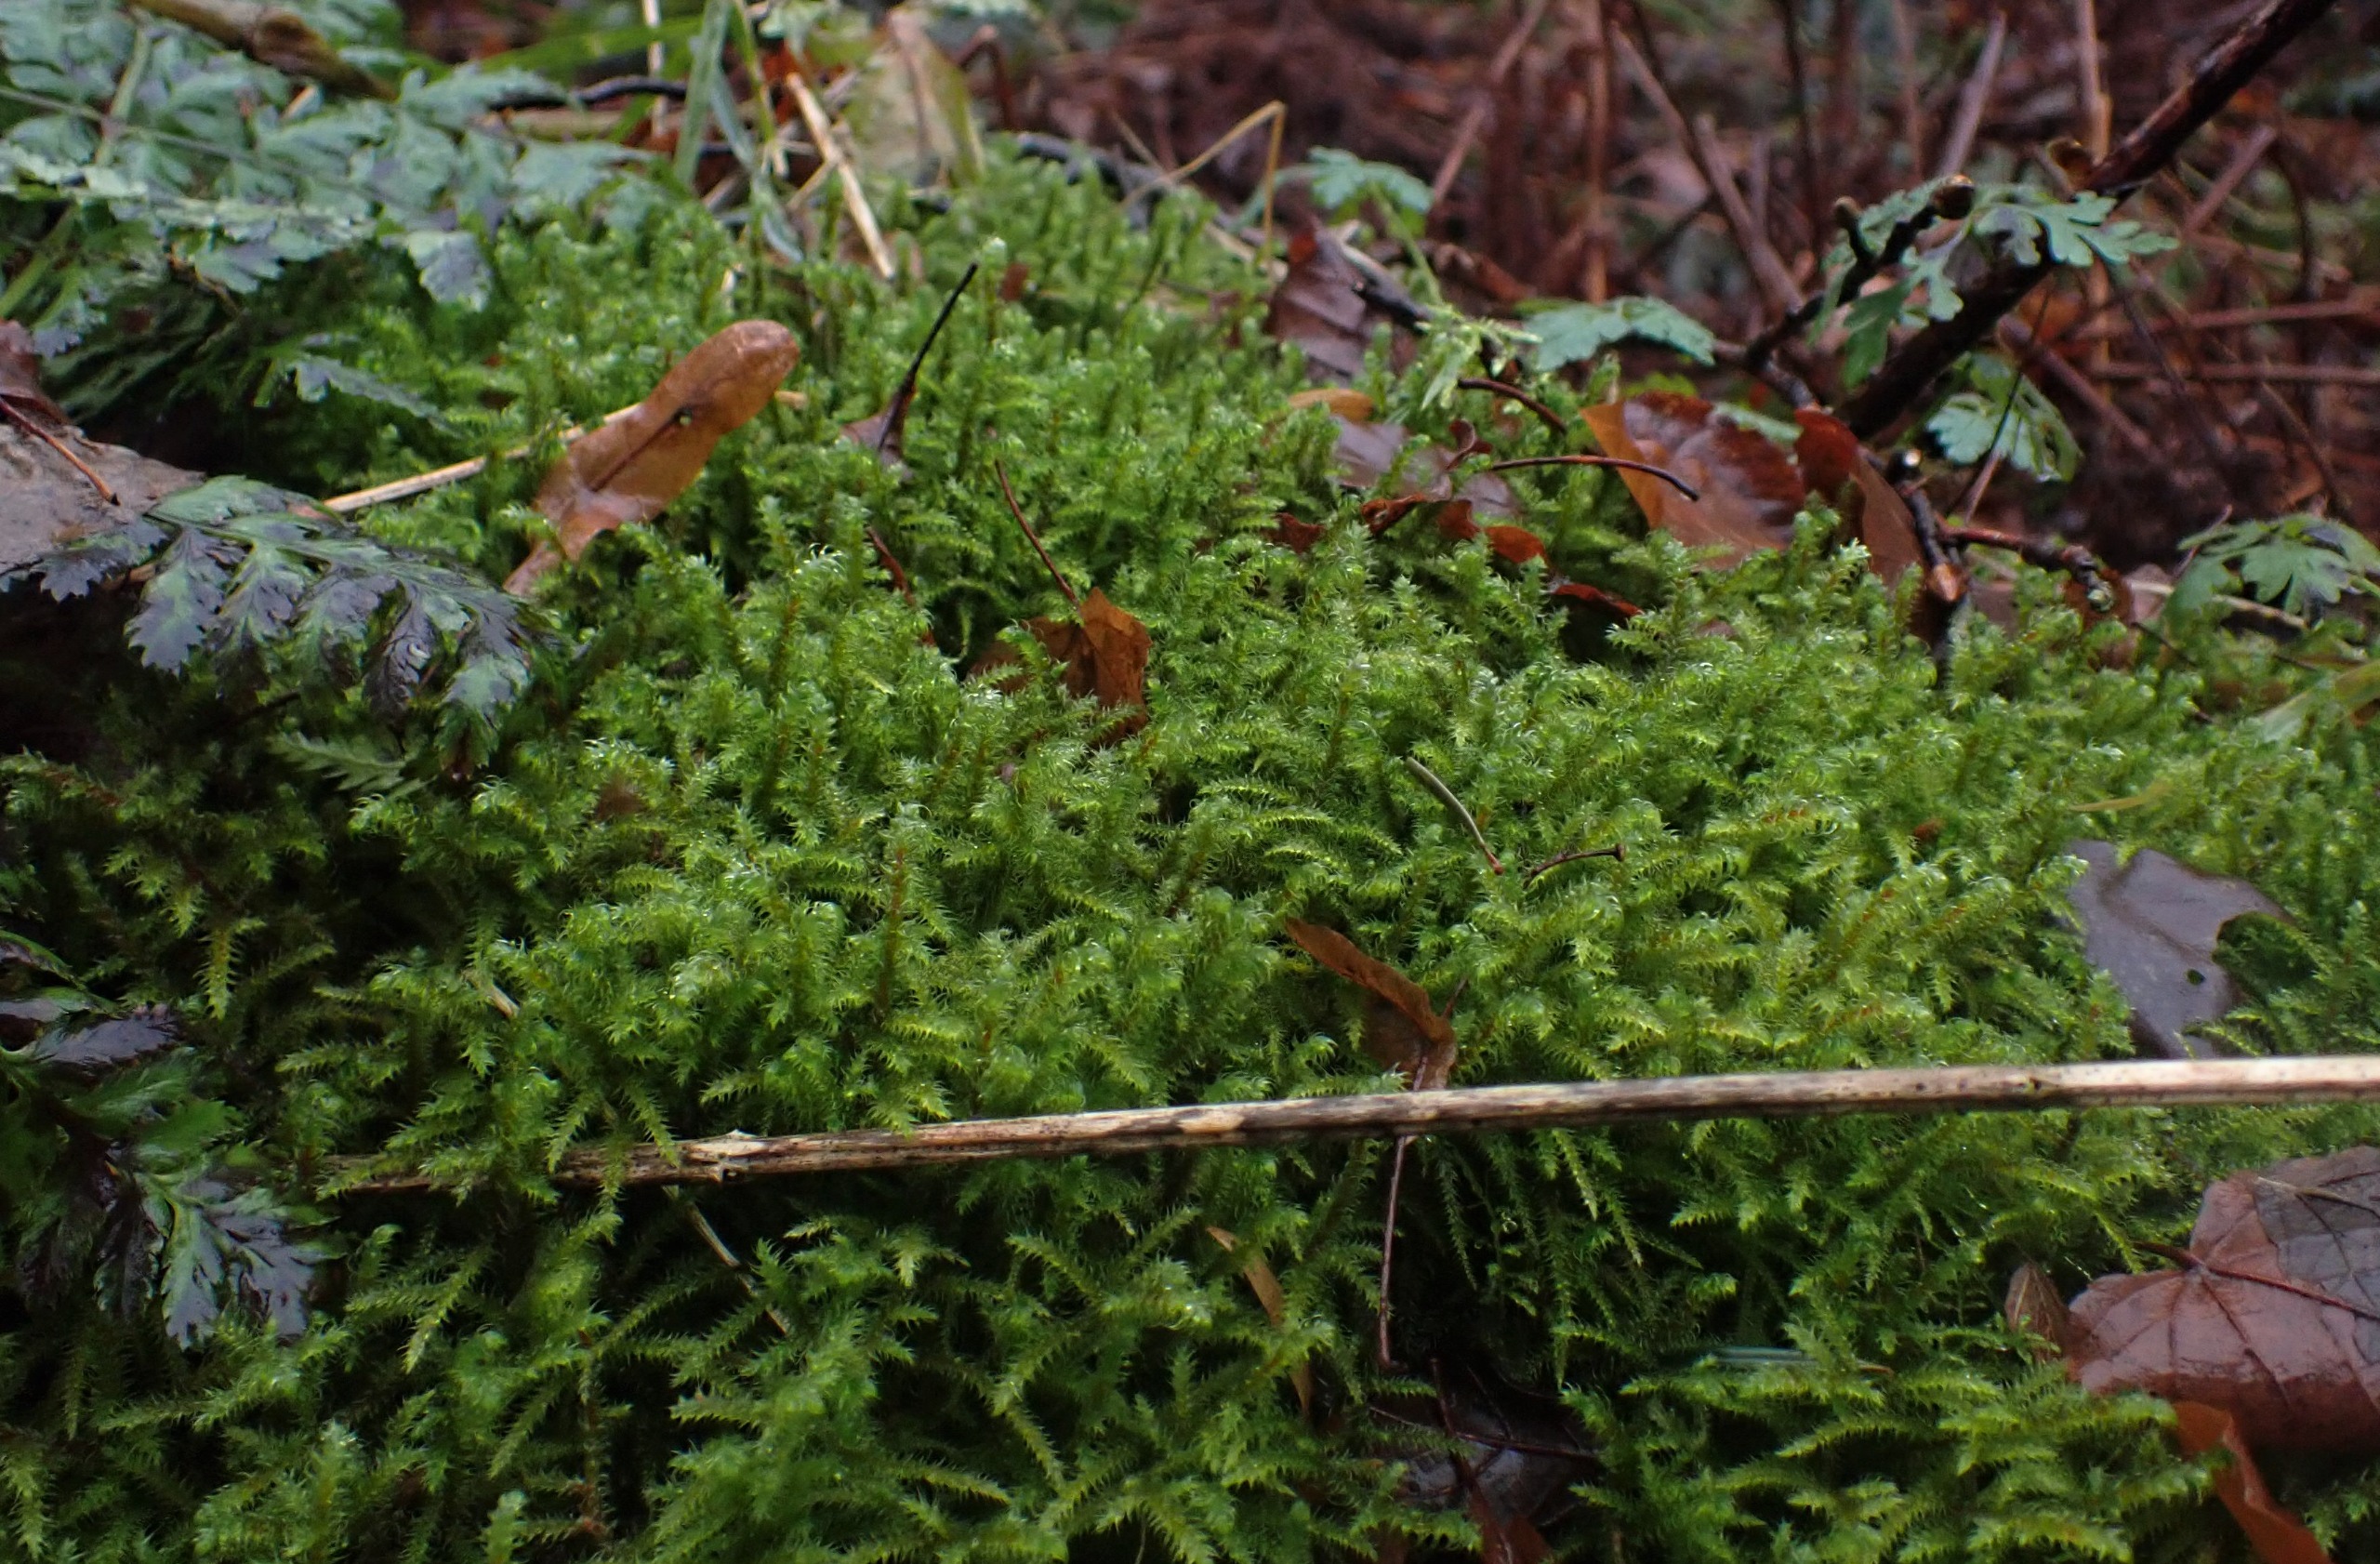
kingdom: Plantae
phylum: Bryophyta
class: Bryopsida
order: Hypnales
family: Hylocomiaceae
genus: Rhytidiadelphus
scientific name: Rhytidiadelphus loreus
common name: Ulvefod-kransemos
